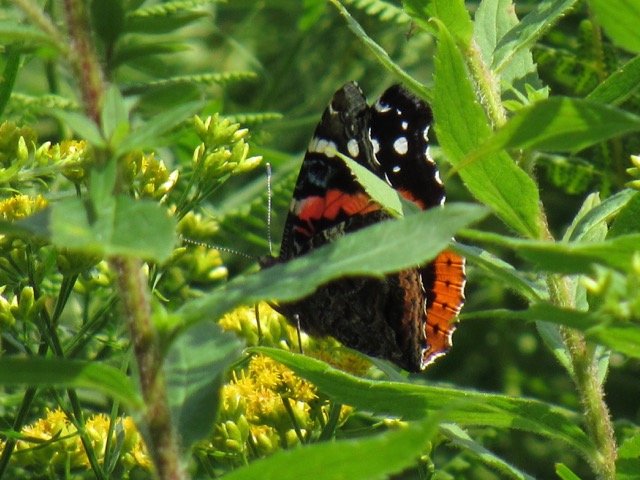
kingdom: Animalia
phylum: Arthropoda
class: Insecta
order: Lepidoptera
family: Nymphalidae
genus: Vanessa
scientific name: Vanessa atalanta
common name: Red Admiral
